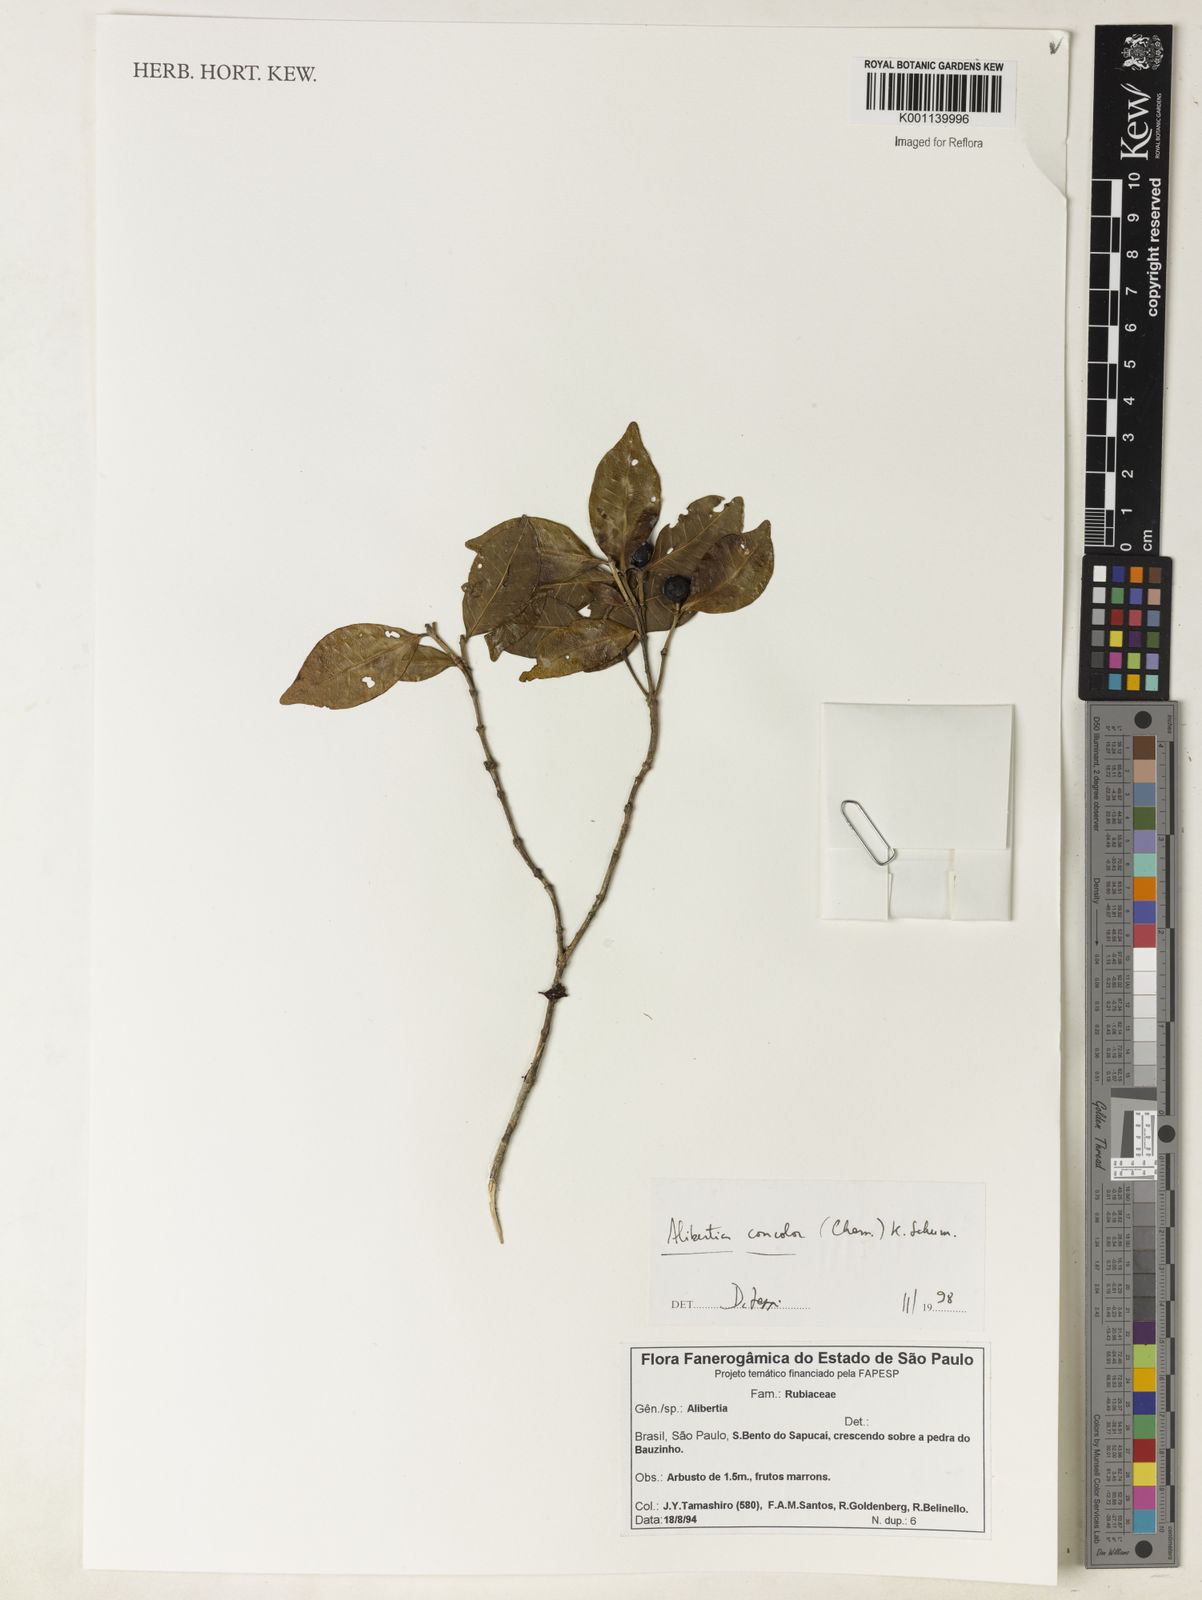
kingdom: Plantae
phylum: Tracheophyta
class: Magnoliopsida
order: Gentianales
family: Rubiaceae
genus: Cordiera
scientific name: Cordiera concolor
